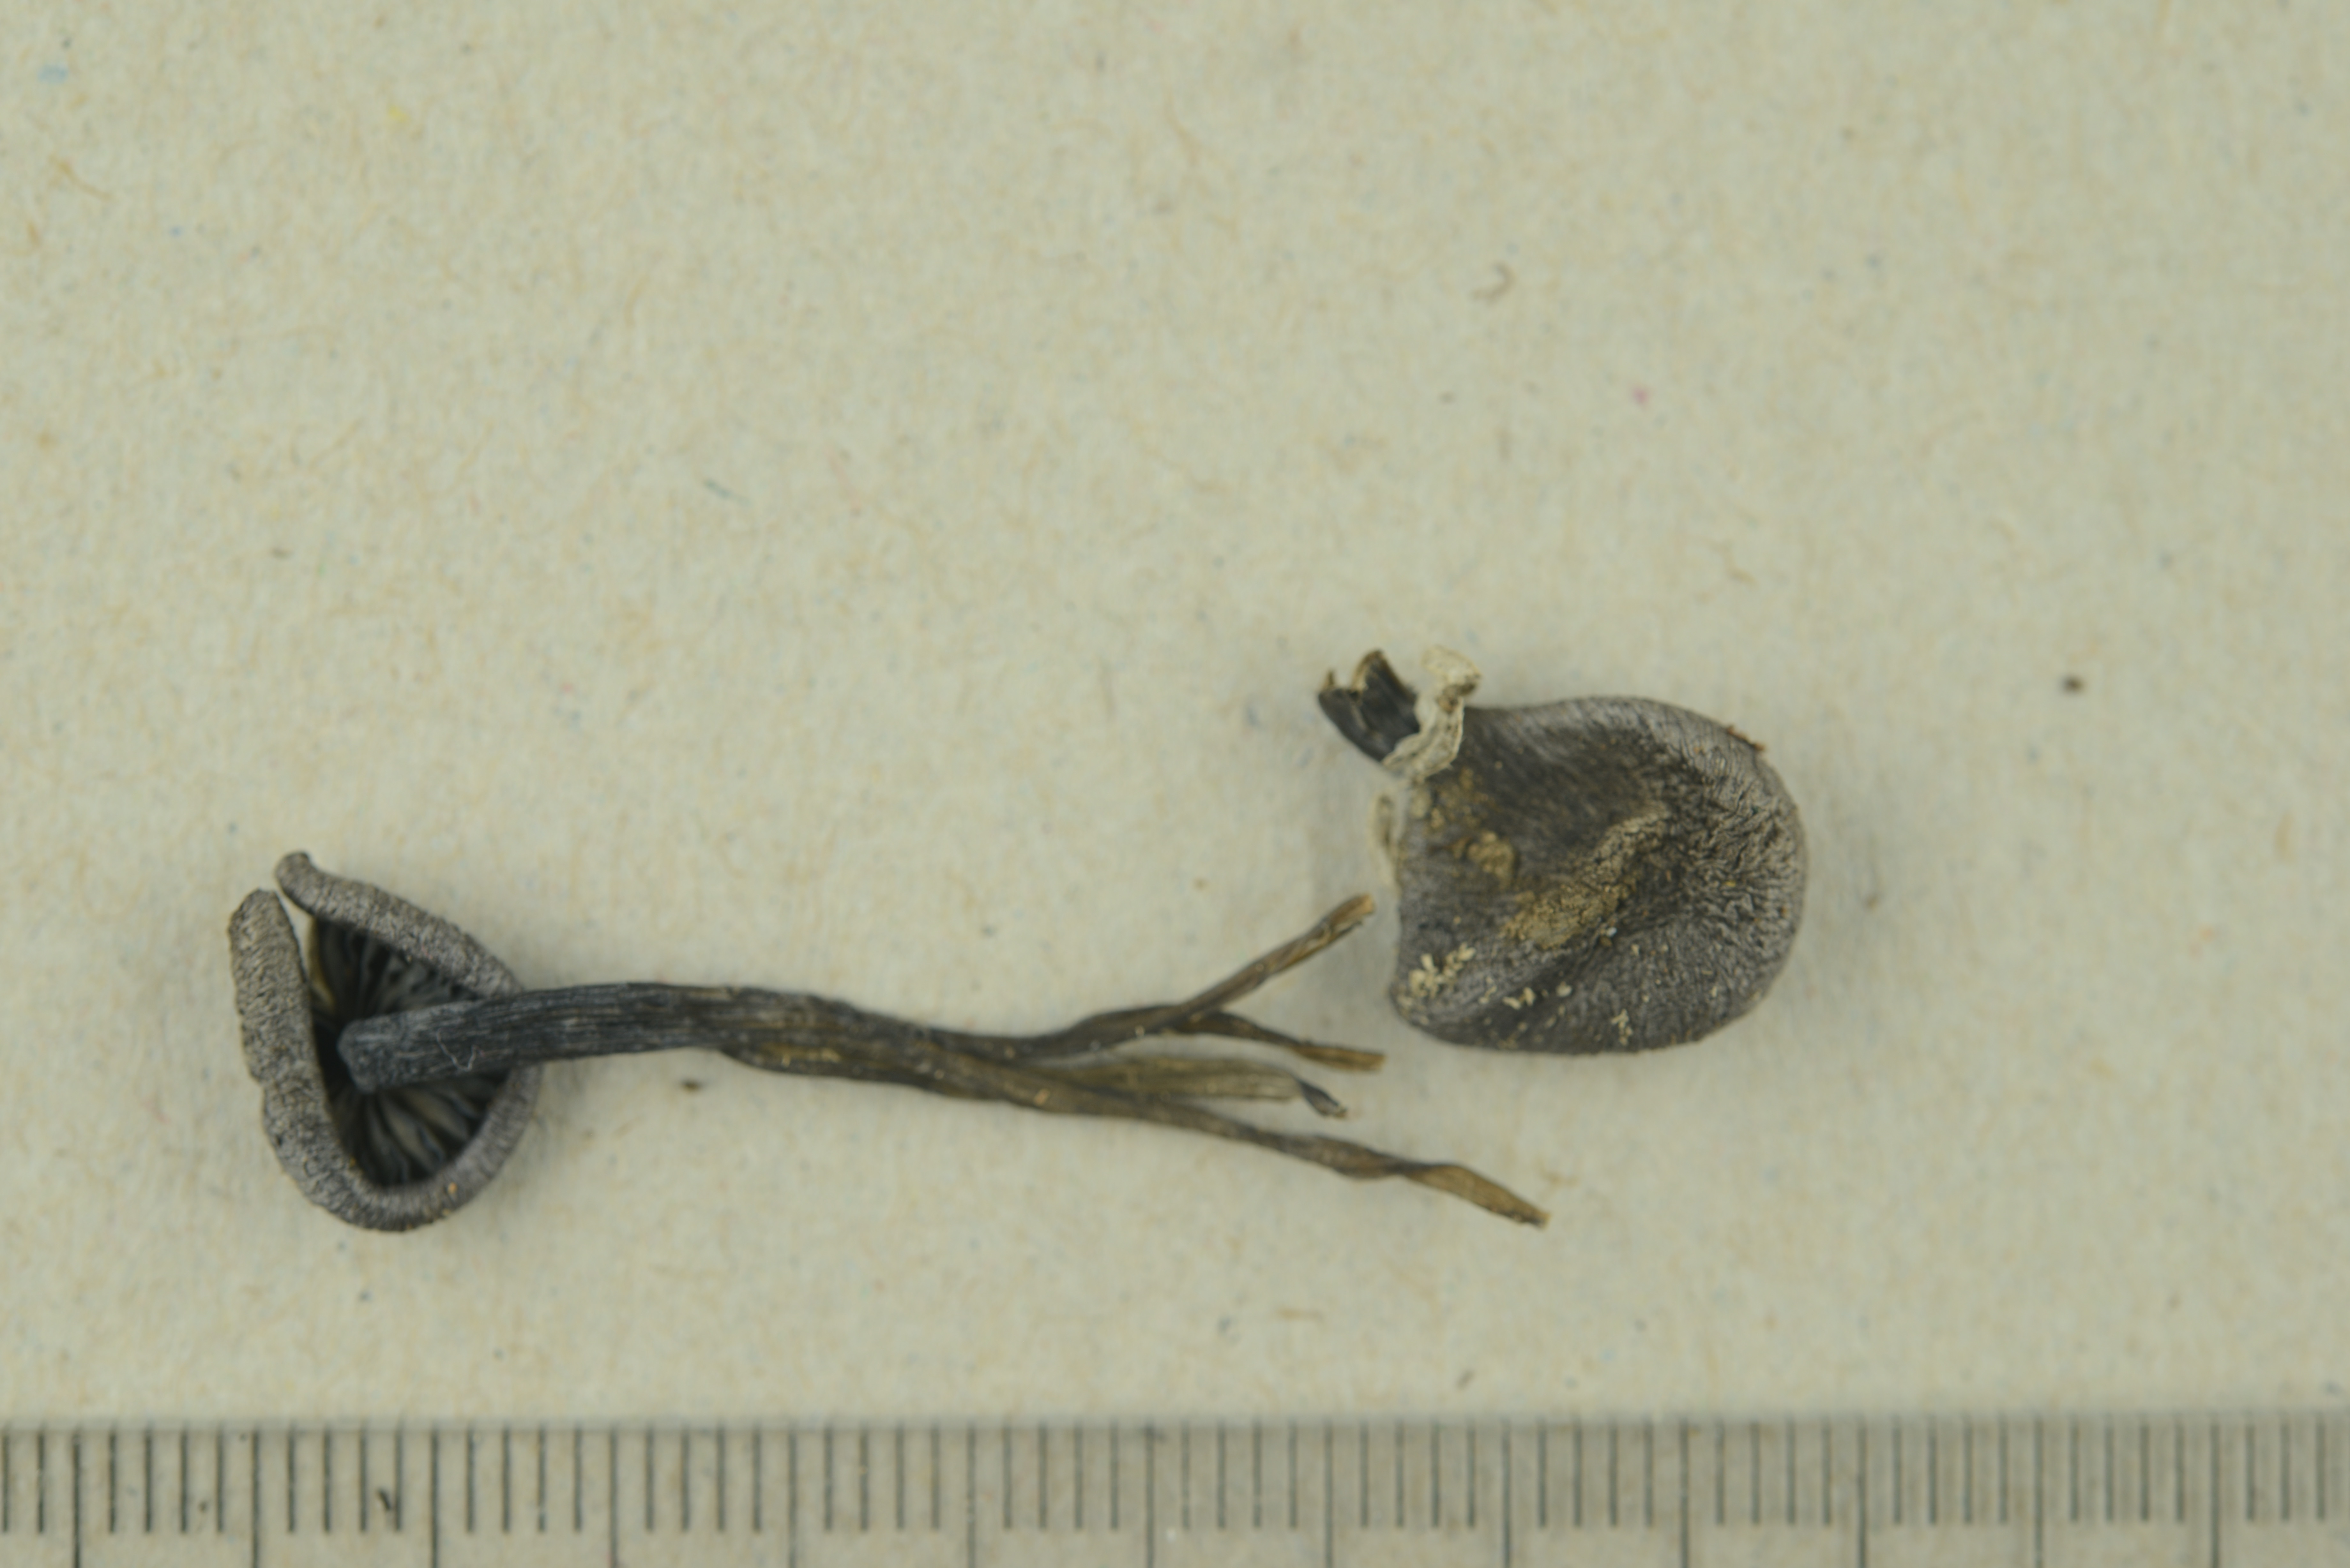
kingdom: Fungi
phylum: Basidiomycota
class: Agaricomycetes
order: Agaricales
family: Entolomataceae
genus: Entoloma
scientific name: Entoloma euchroum
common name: Stump pinkgill
